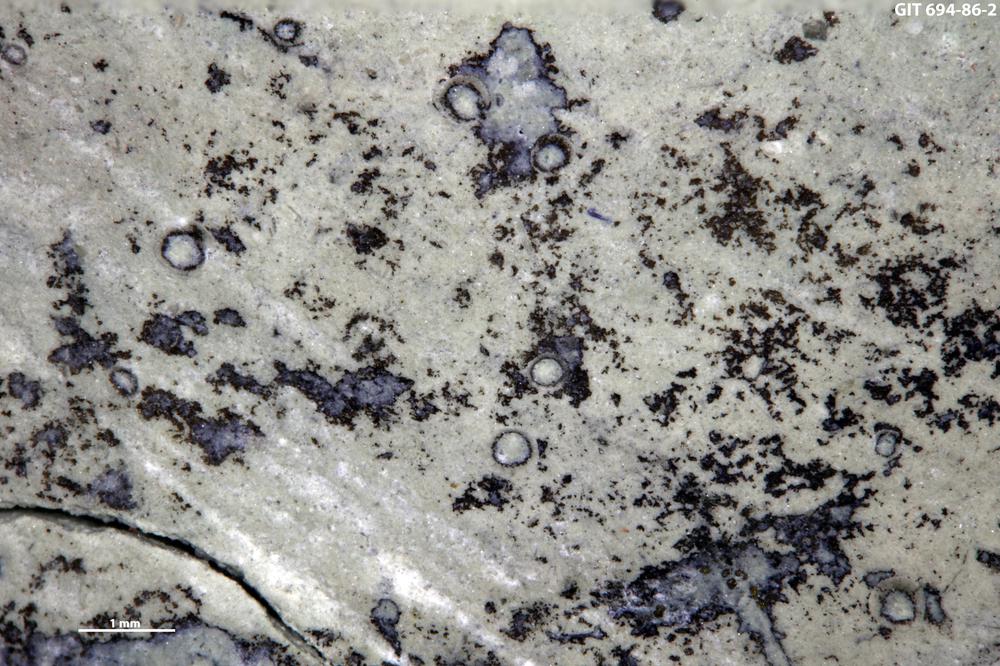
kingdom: Animalia
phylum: Brachiopoda
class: Craniata
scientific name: Craniata
